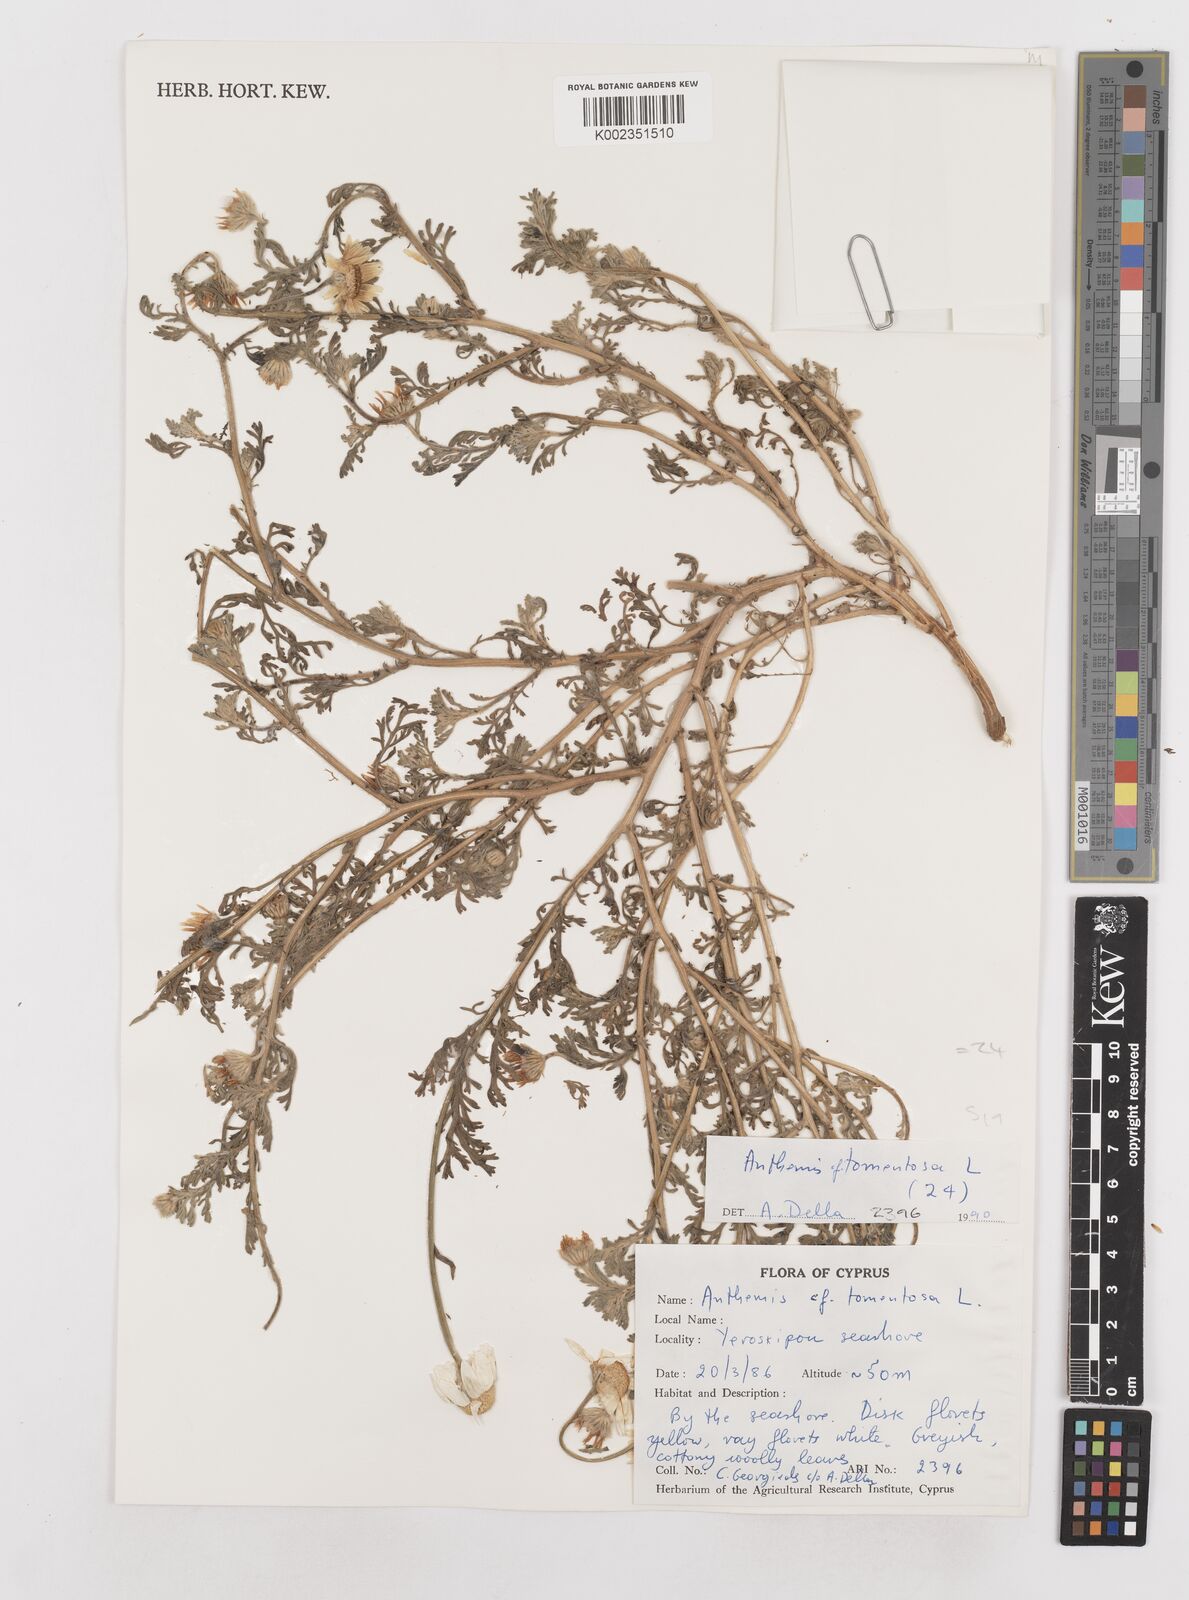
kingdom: Plantae
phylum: Tracheophyta
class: Magnoliopsida
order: Asterales
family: Asteraceae
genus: Anthemis
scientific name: Anthemis tomentosa
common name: Woolly chamomile
